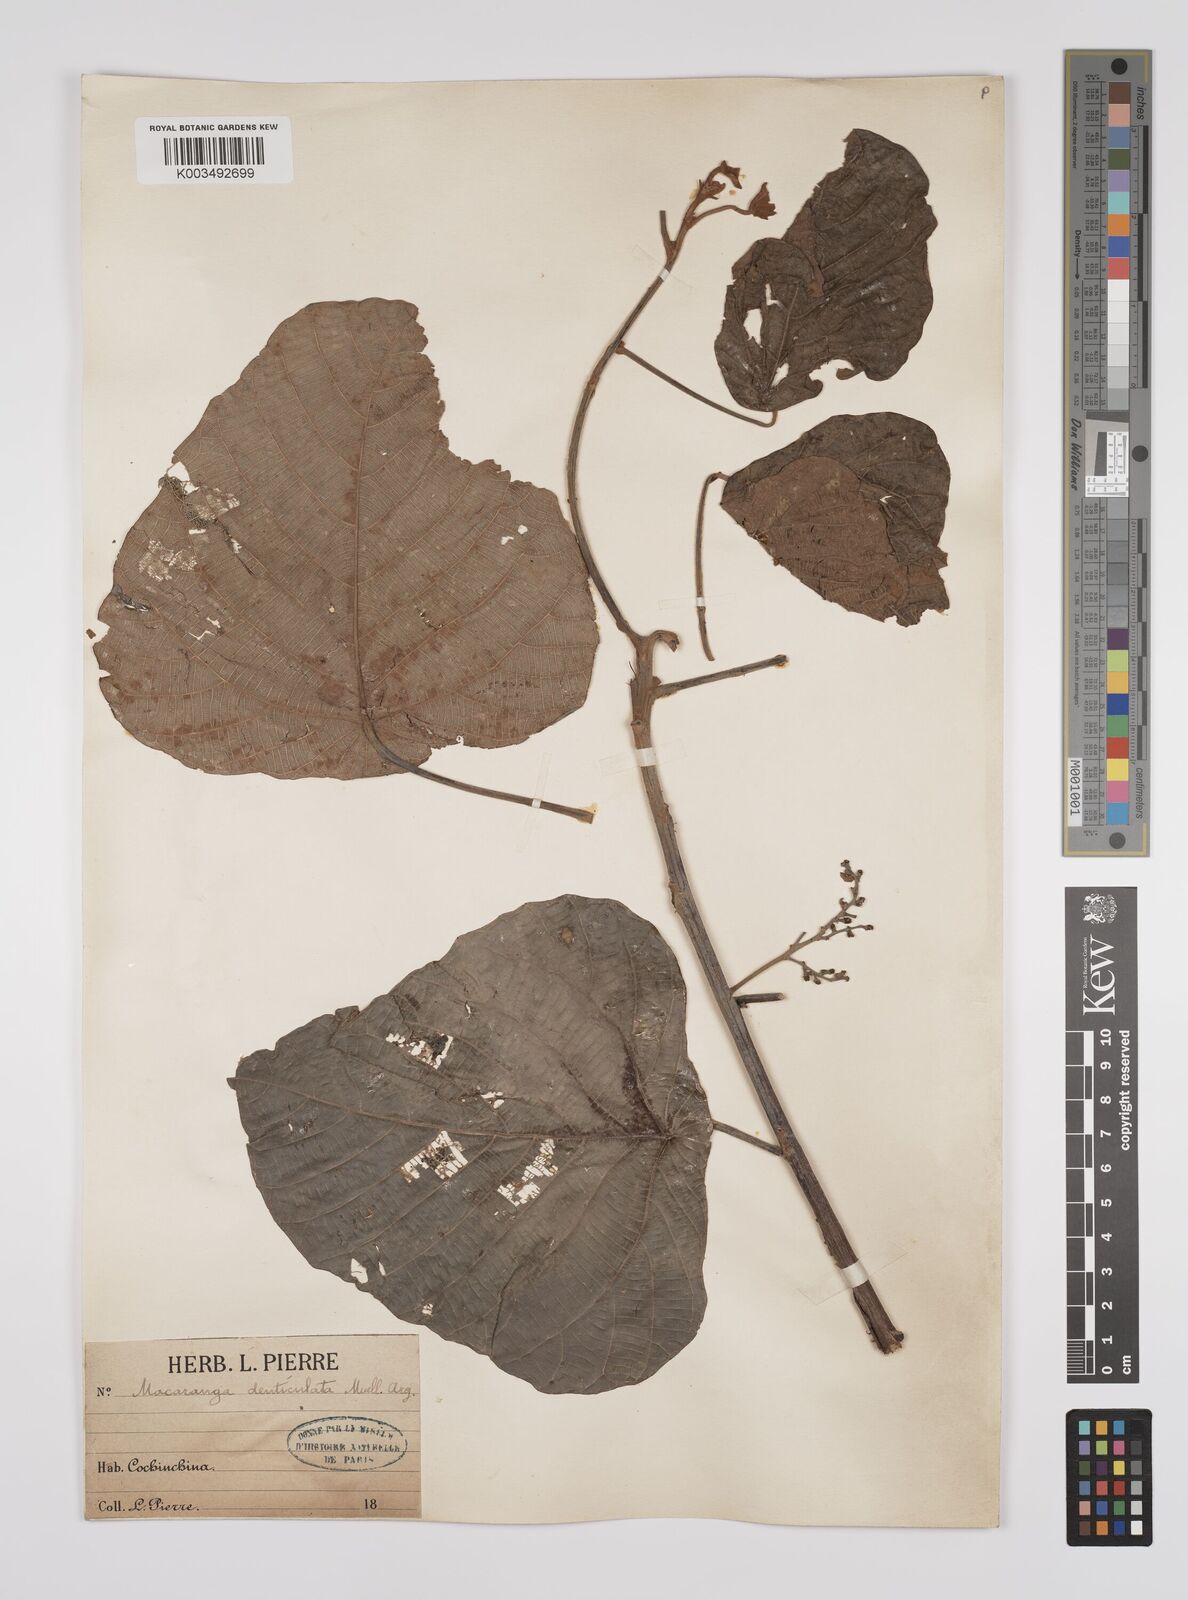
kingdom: Plantae
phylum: Tracheophyta
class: Magnoliopsida
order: Malpighiales
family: Euphorbiaceae
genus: Macaranga
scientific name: Macaranga denticulata
